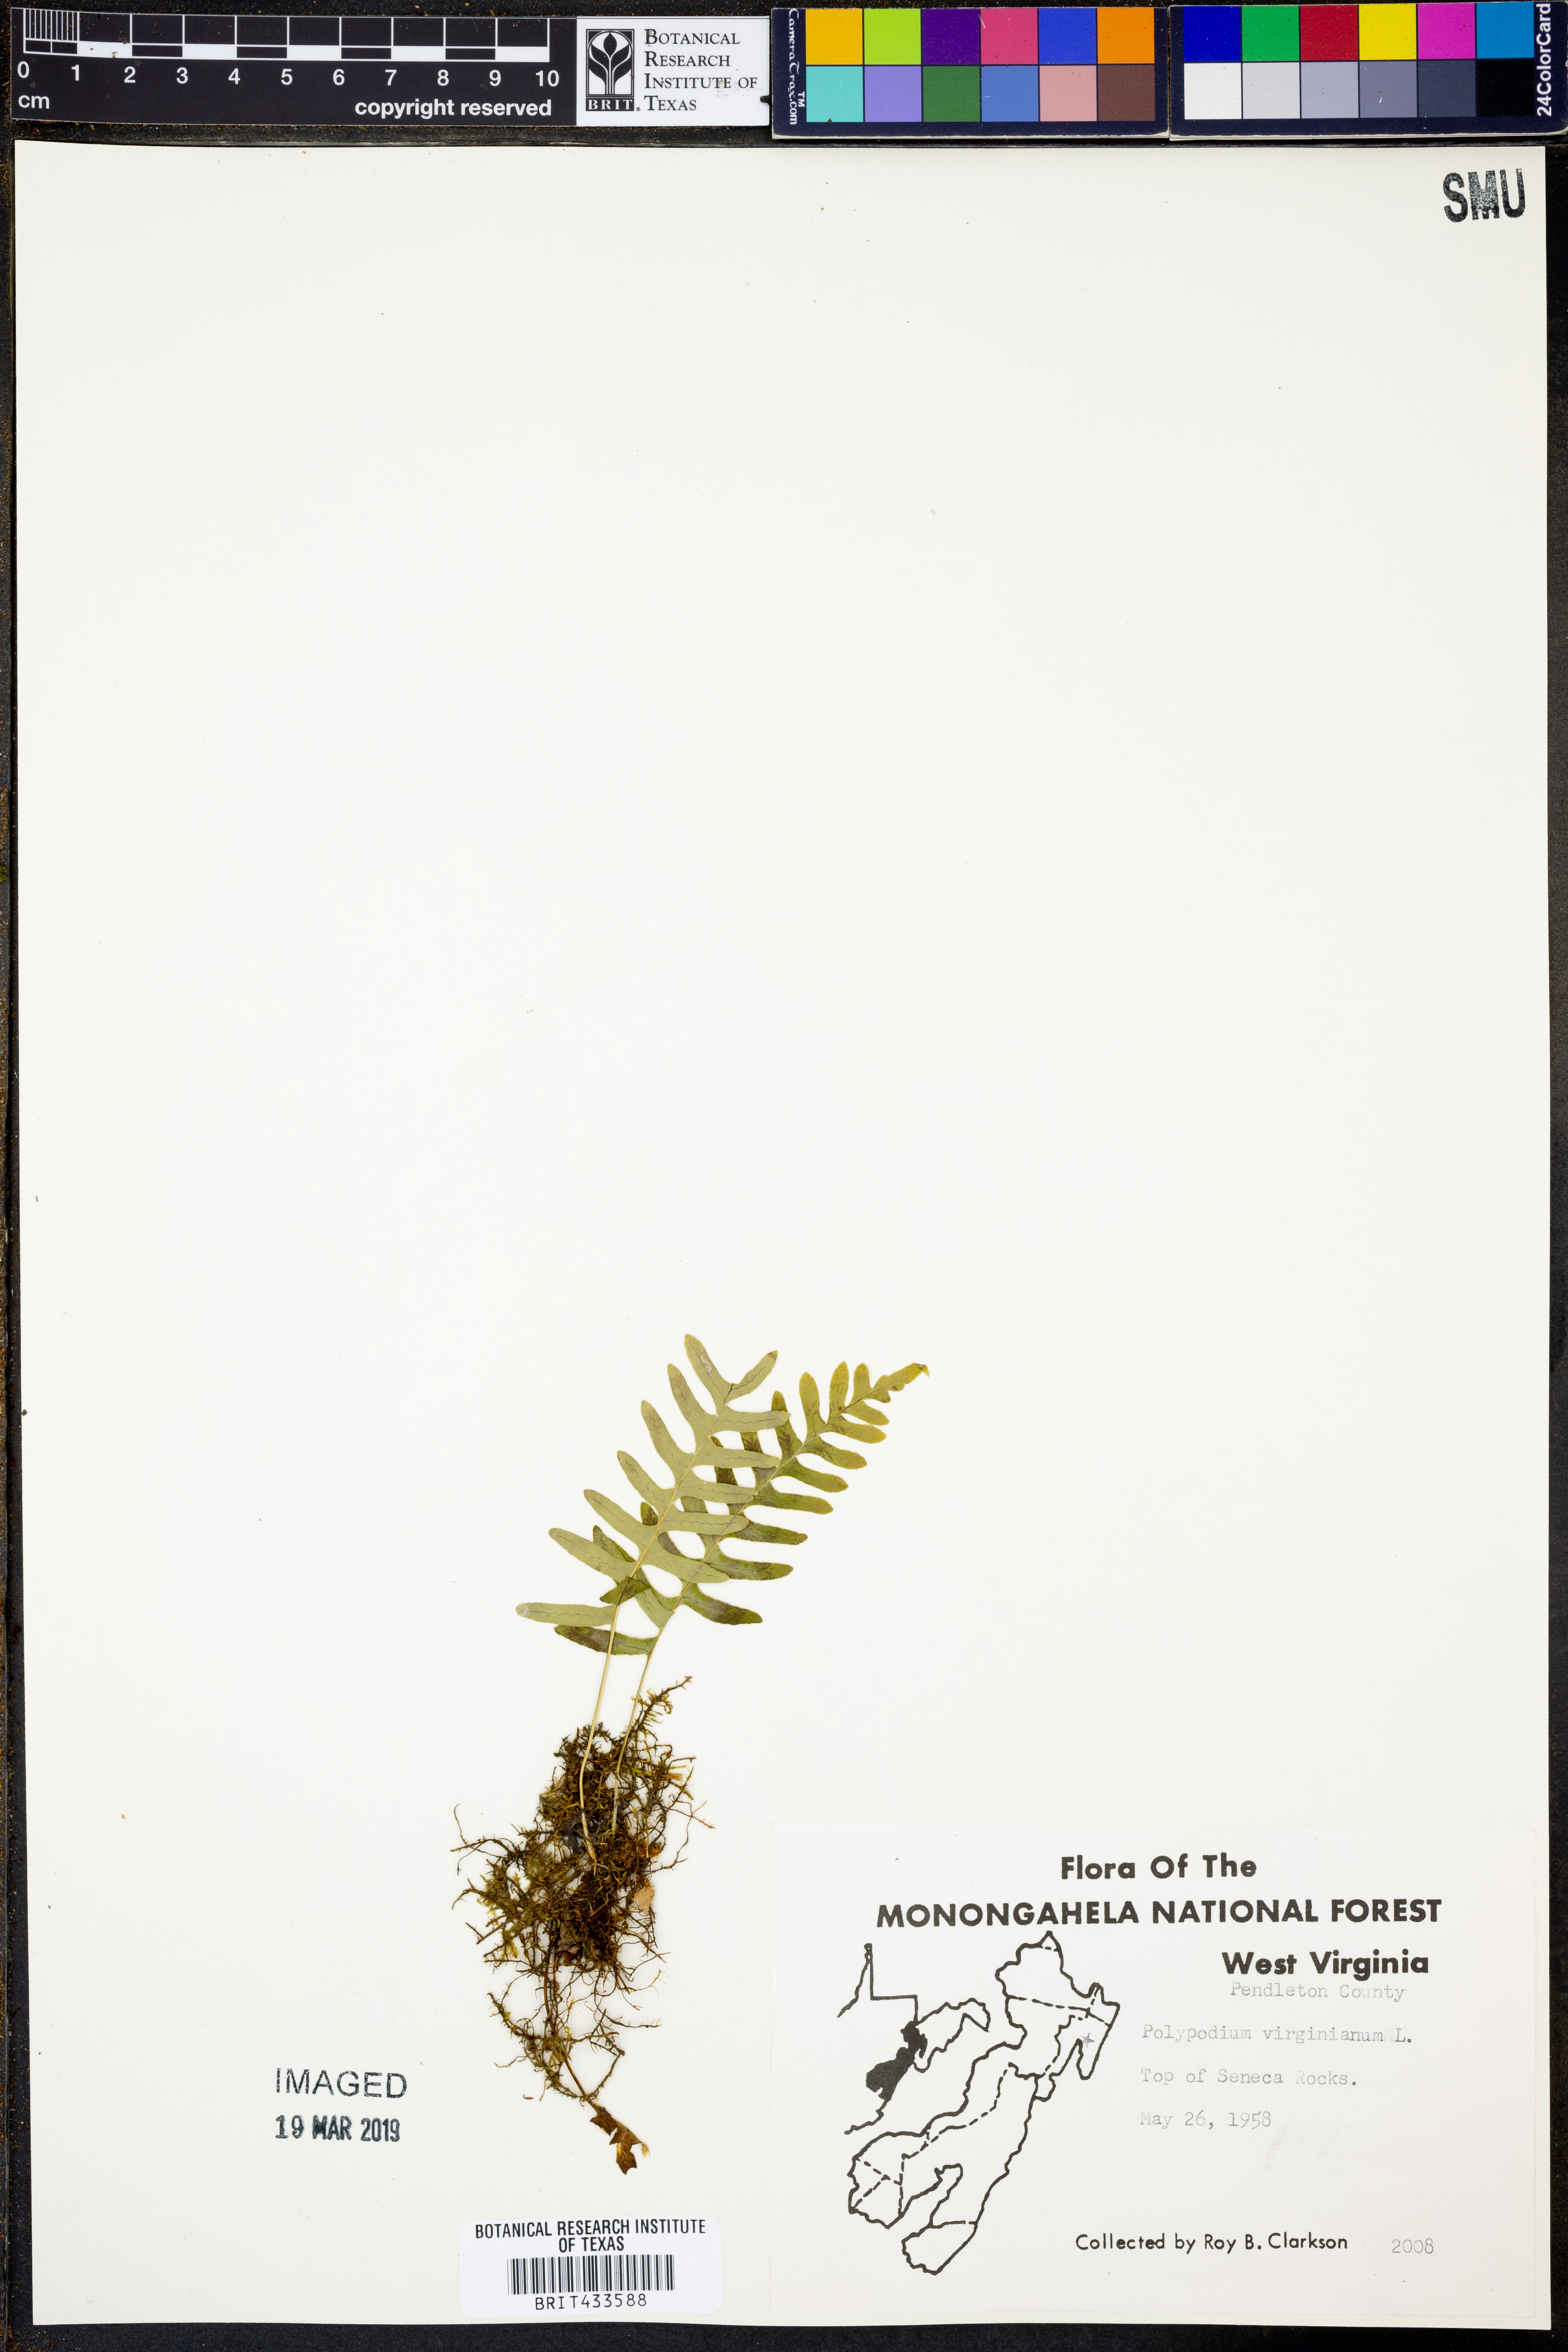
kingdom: Plantae
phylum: Tracheophyta
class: Polypodiopsida
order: Polypodiales
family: Polypodiaceae
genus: Polypodium
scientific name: Polypodium virginianum
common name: American wall fern
